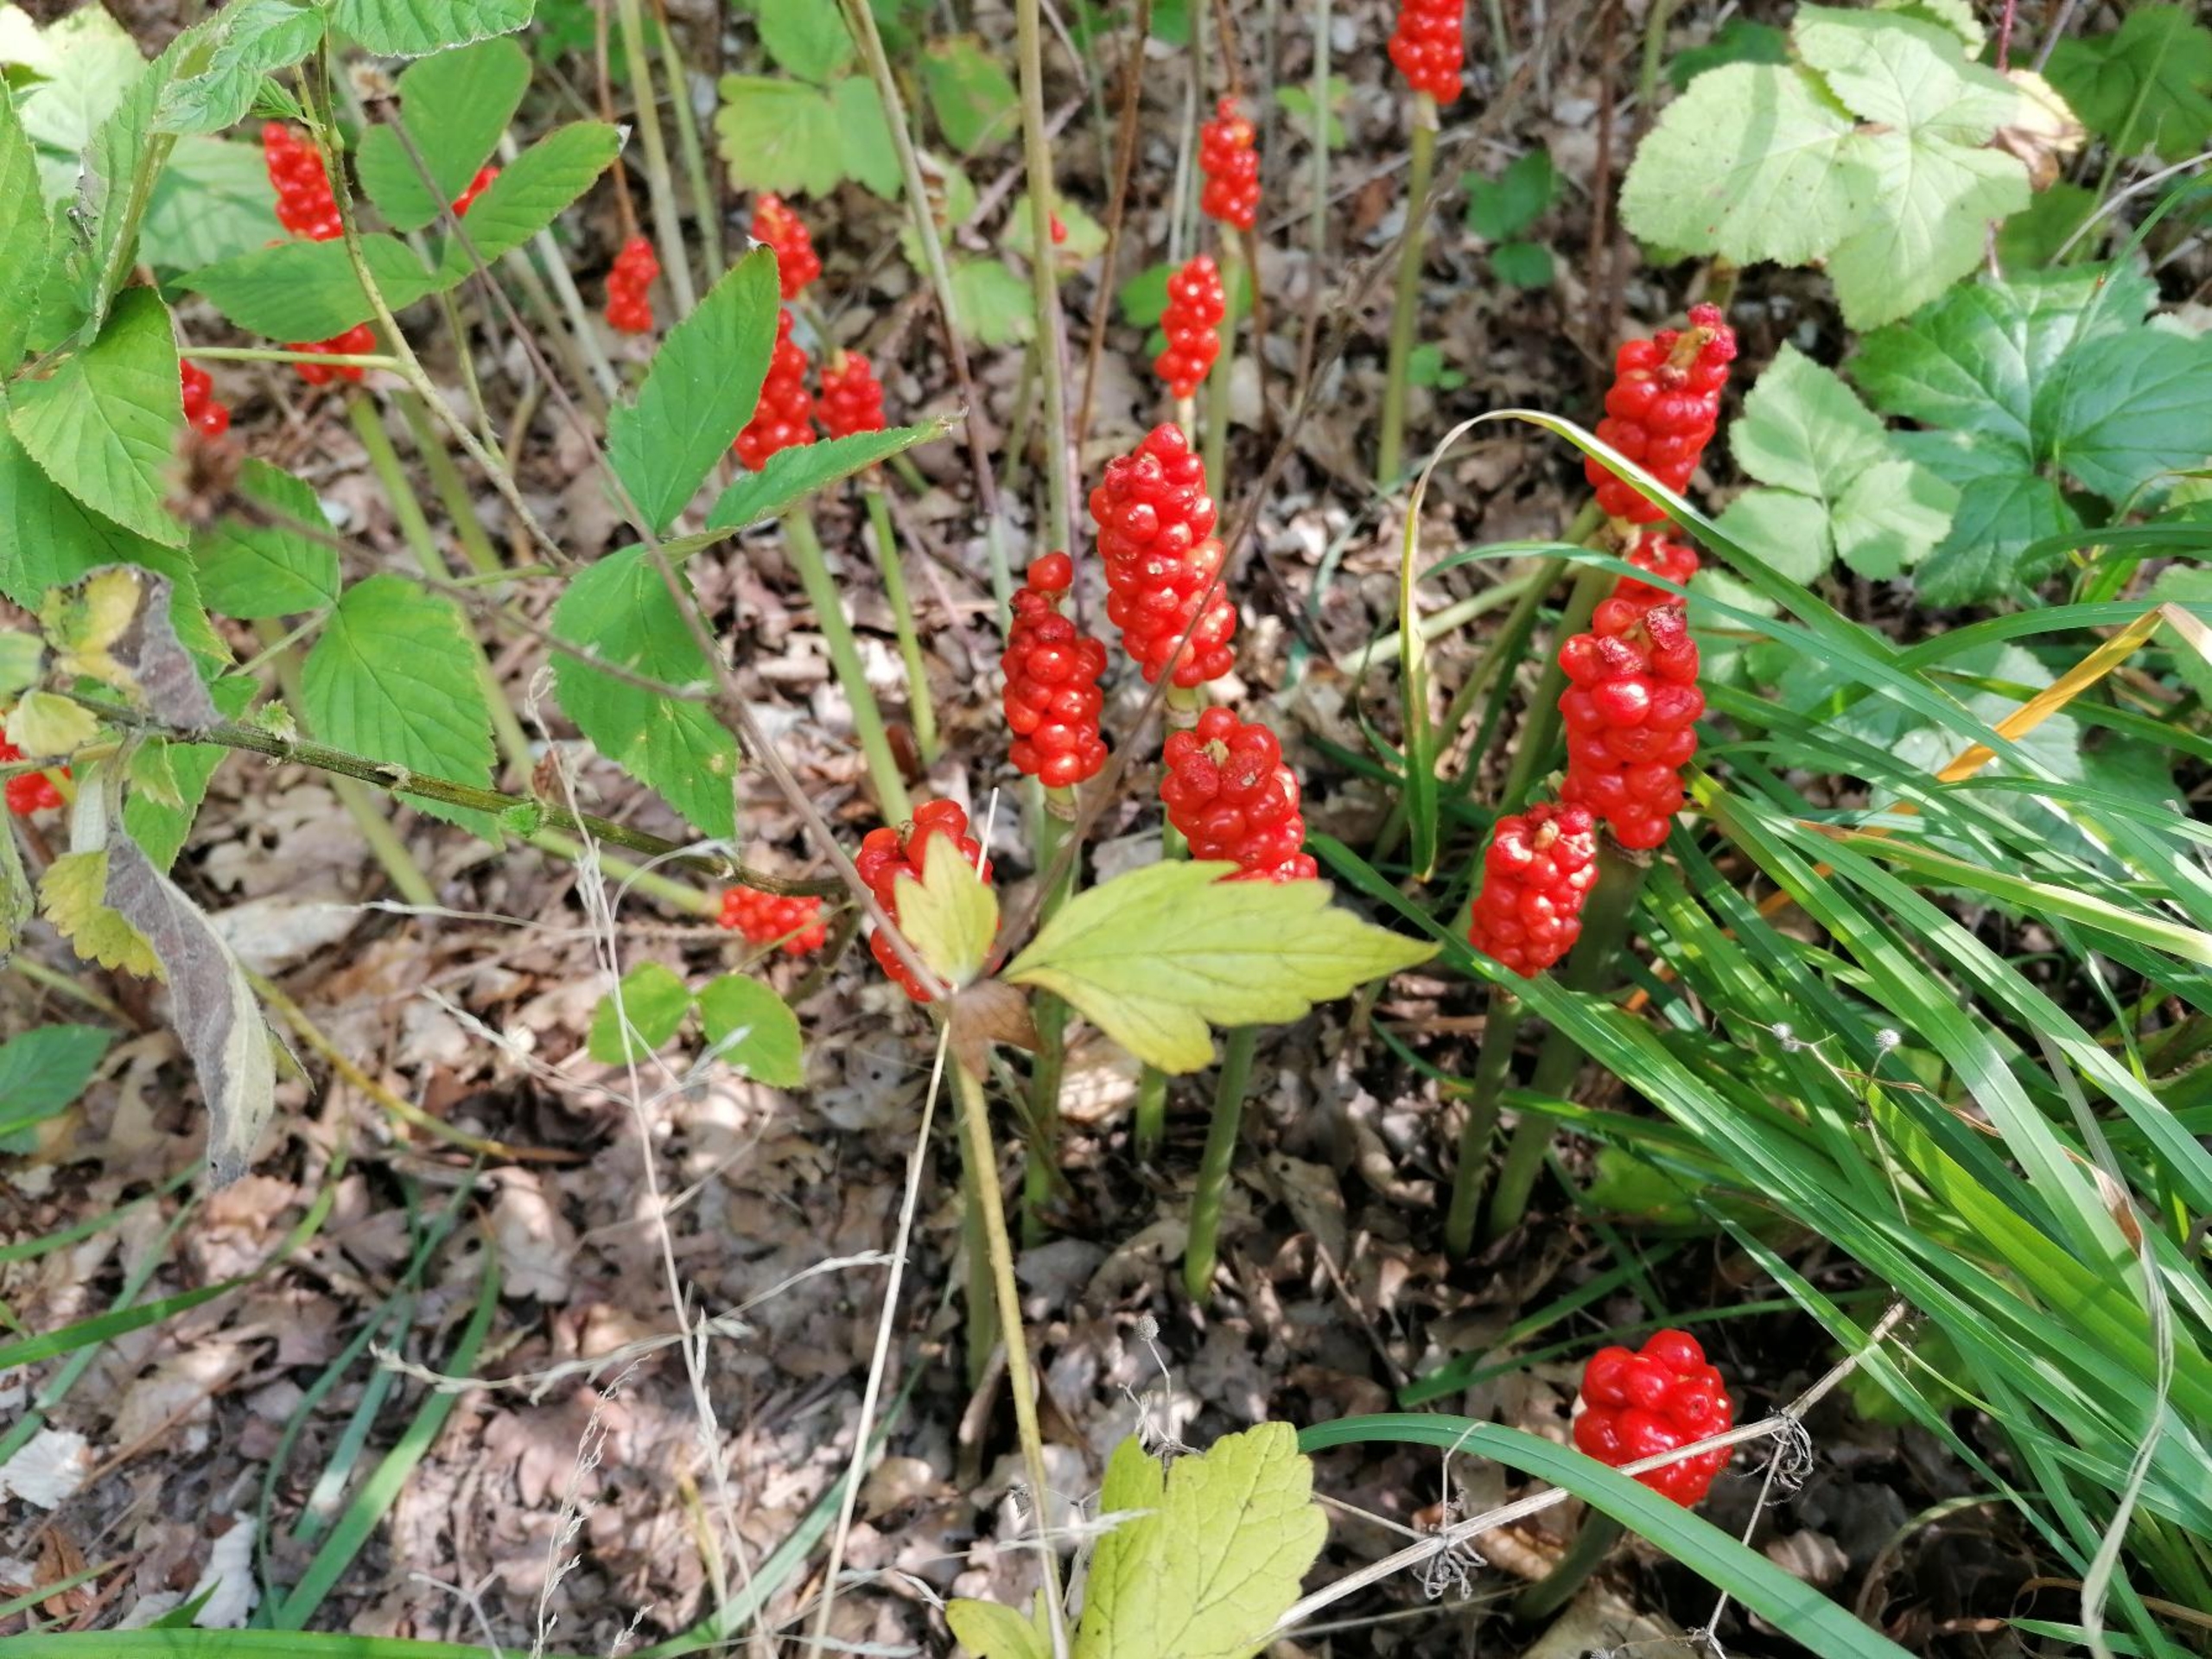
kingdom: Plantae
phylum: Tracheophyta
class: Liliopsida
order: Alismatales
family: Araceae
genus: Arum
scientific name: Arum cylindraceum
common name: Dansk arum
